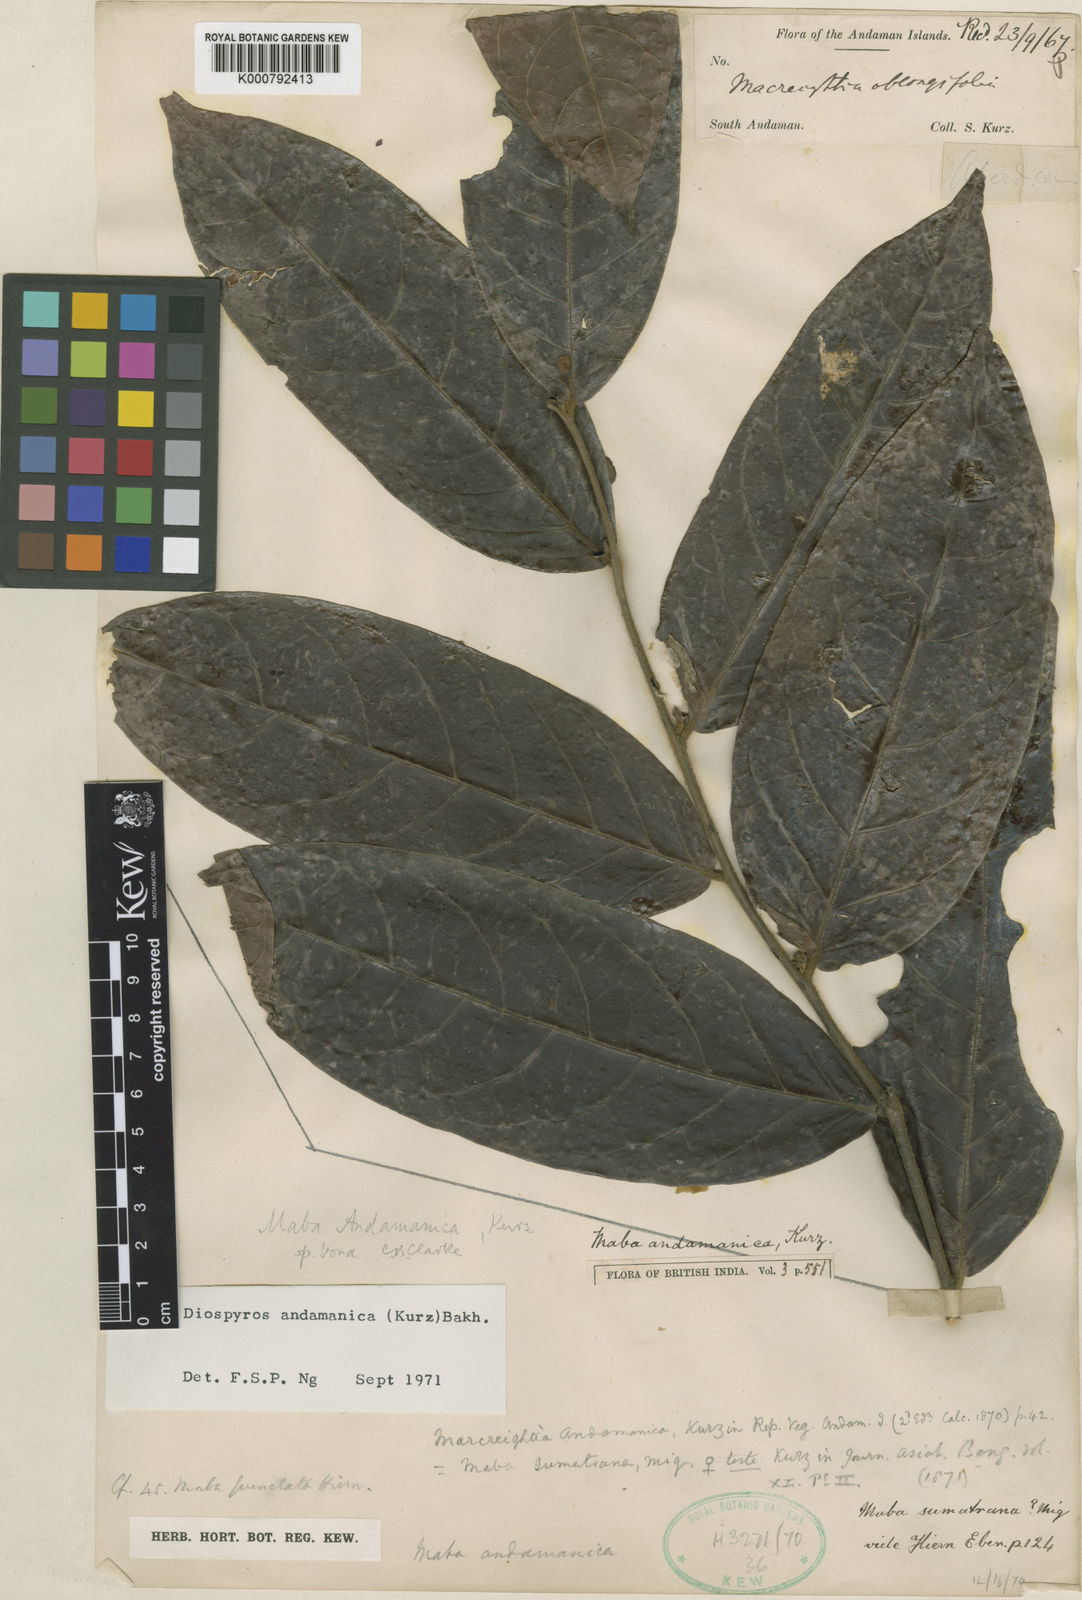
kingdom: Plantae
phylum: Tracheophyta
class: Magnoliopsida
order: Ericales
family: Ebenaceae
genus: Diospyros
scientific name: Diospyros andamanica
